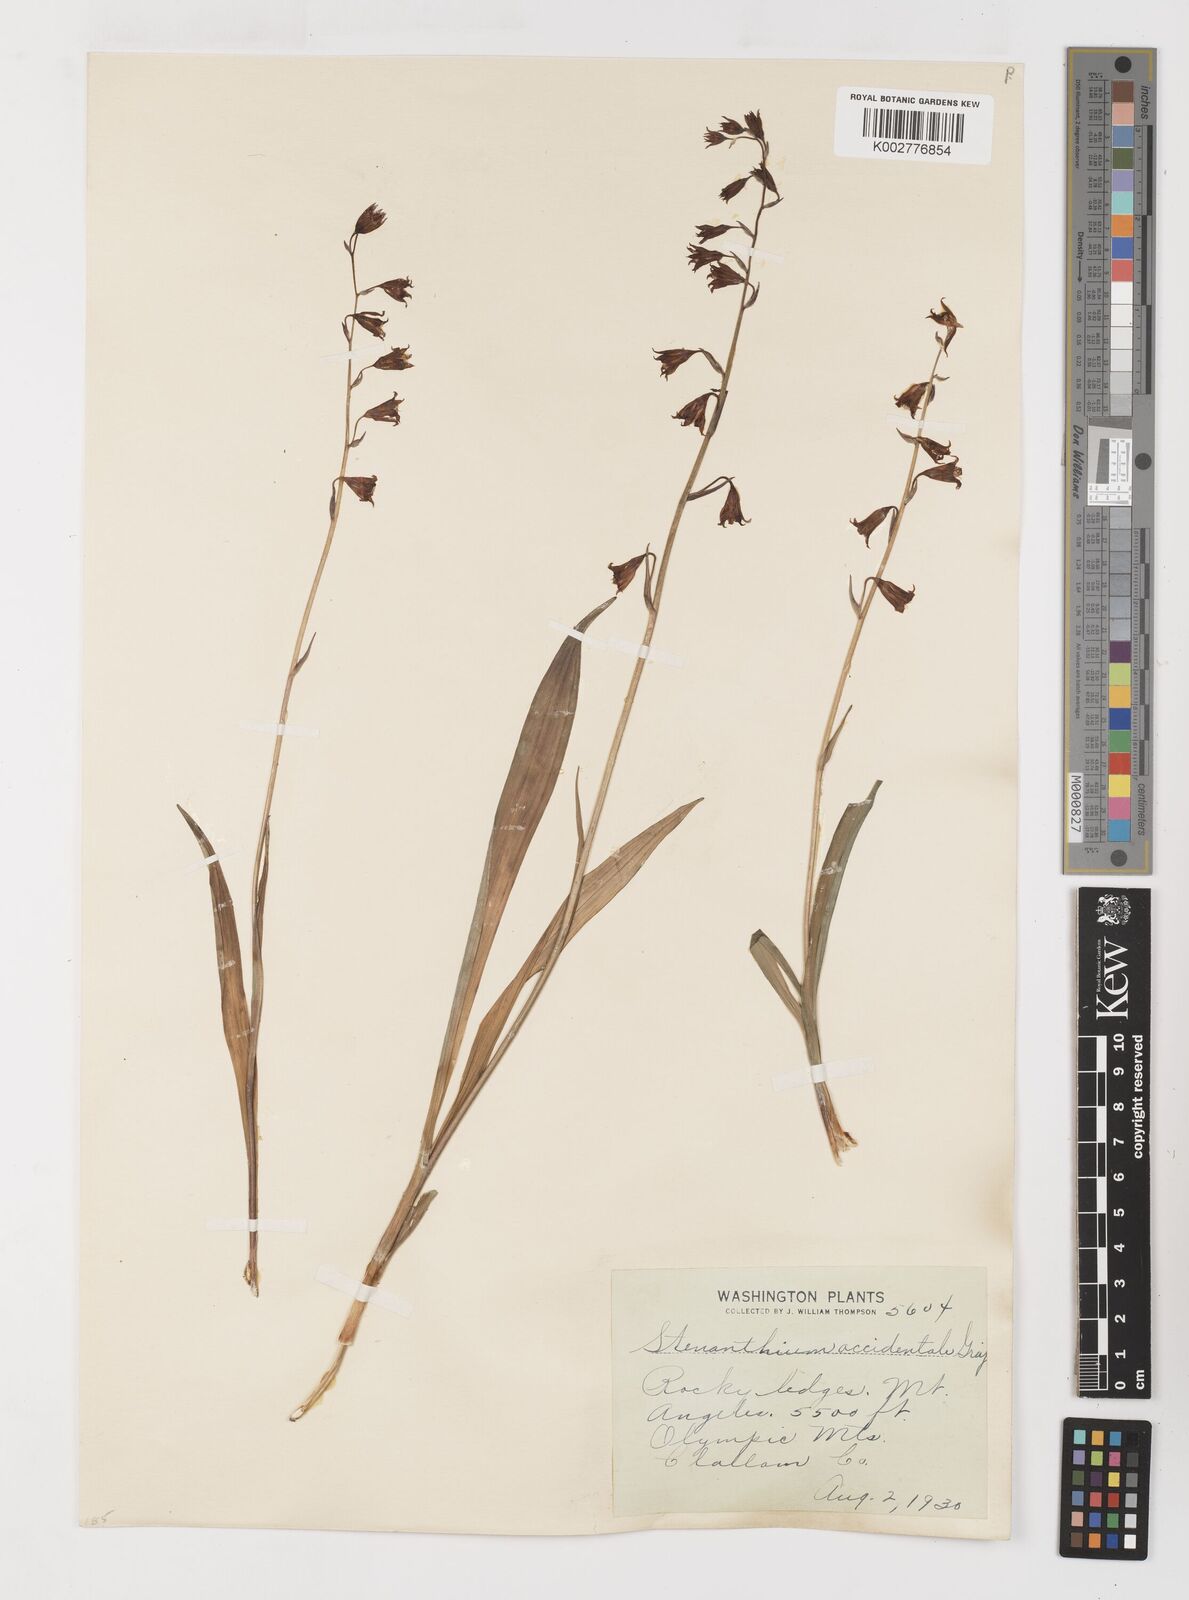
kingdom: Plantae
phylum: Tracheophyta
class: Liliopsida
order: Liliales
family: Melanthiaceae
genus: Anticlea
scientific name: Anticlea occidentalis
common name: Bronze-bells
